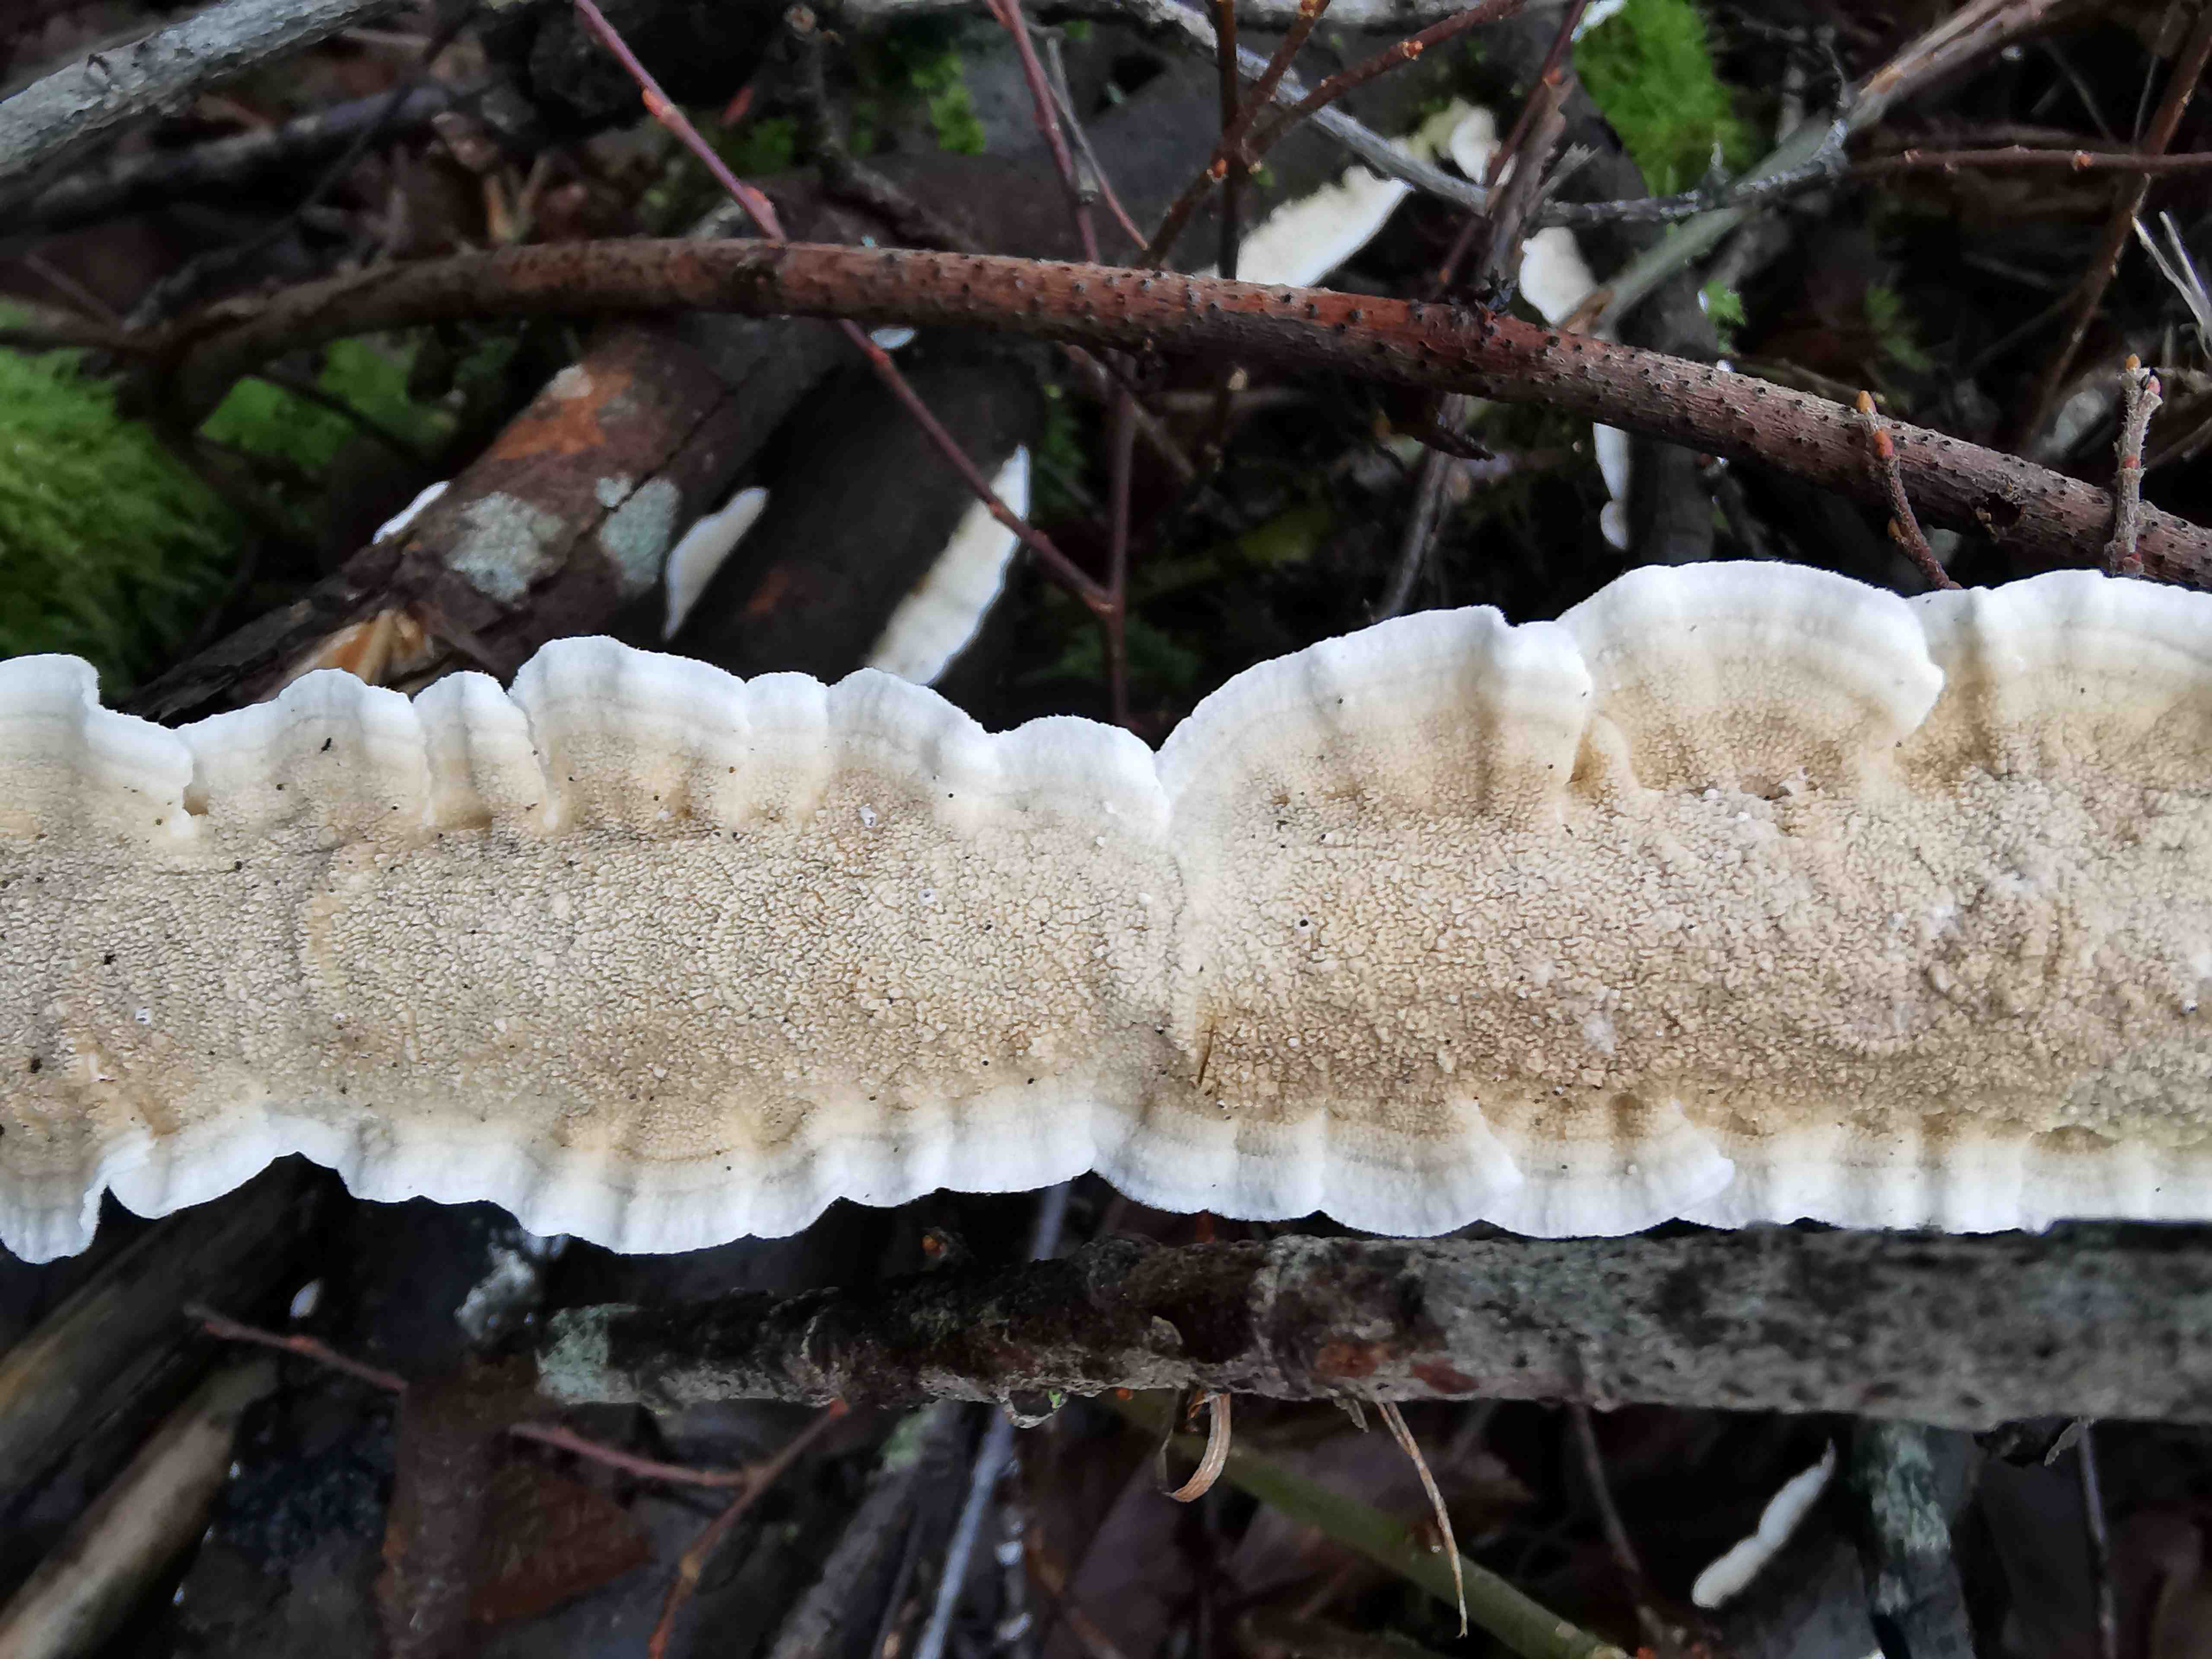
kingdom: Fungi
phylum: Basidiomycota
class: Agaricomycetes
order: Polyporales
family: Irpicaceae
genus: Byssomerulius
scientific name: Byssomerulius corium
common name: læder-åresvamp
